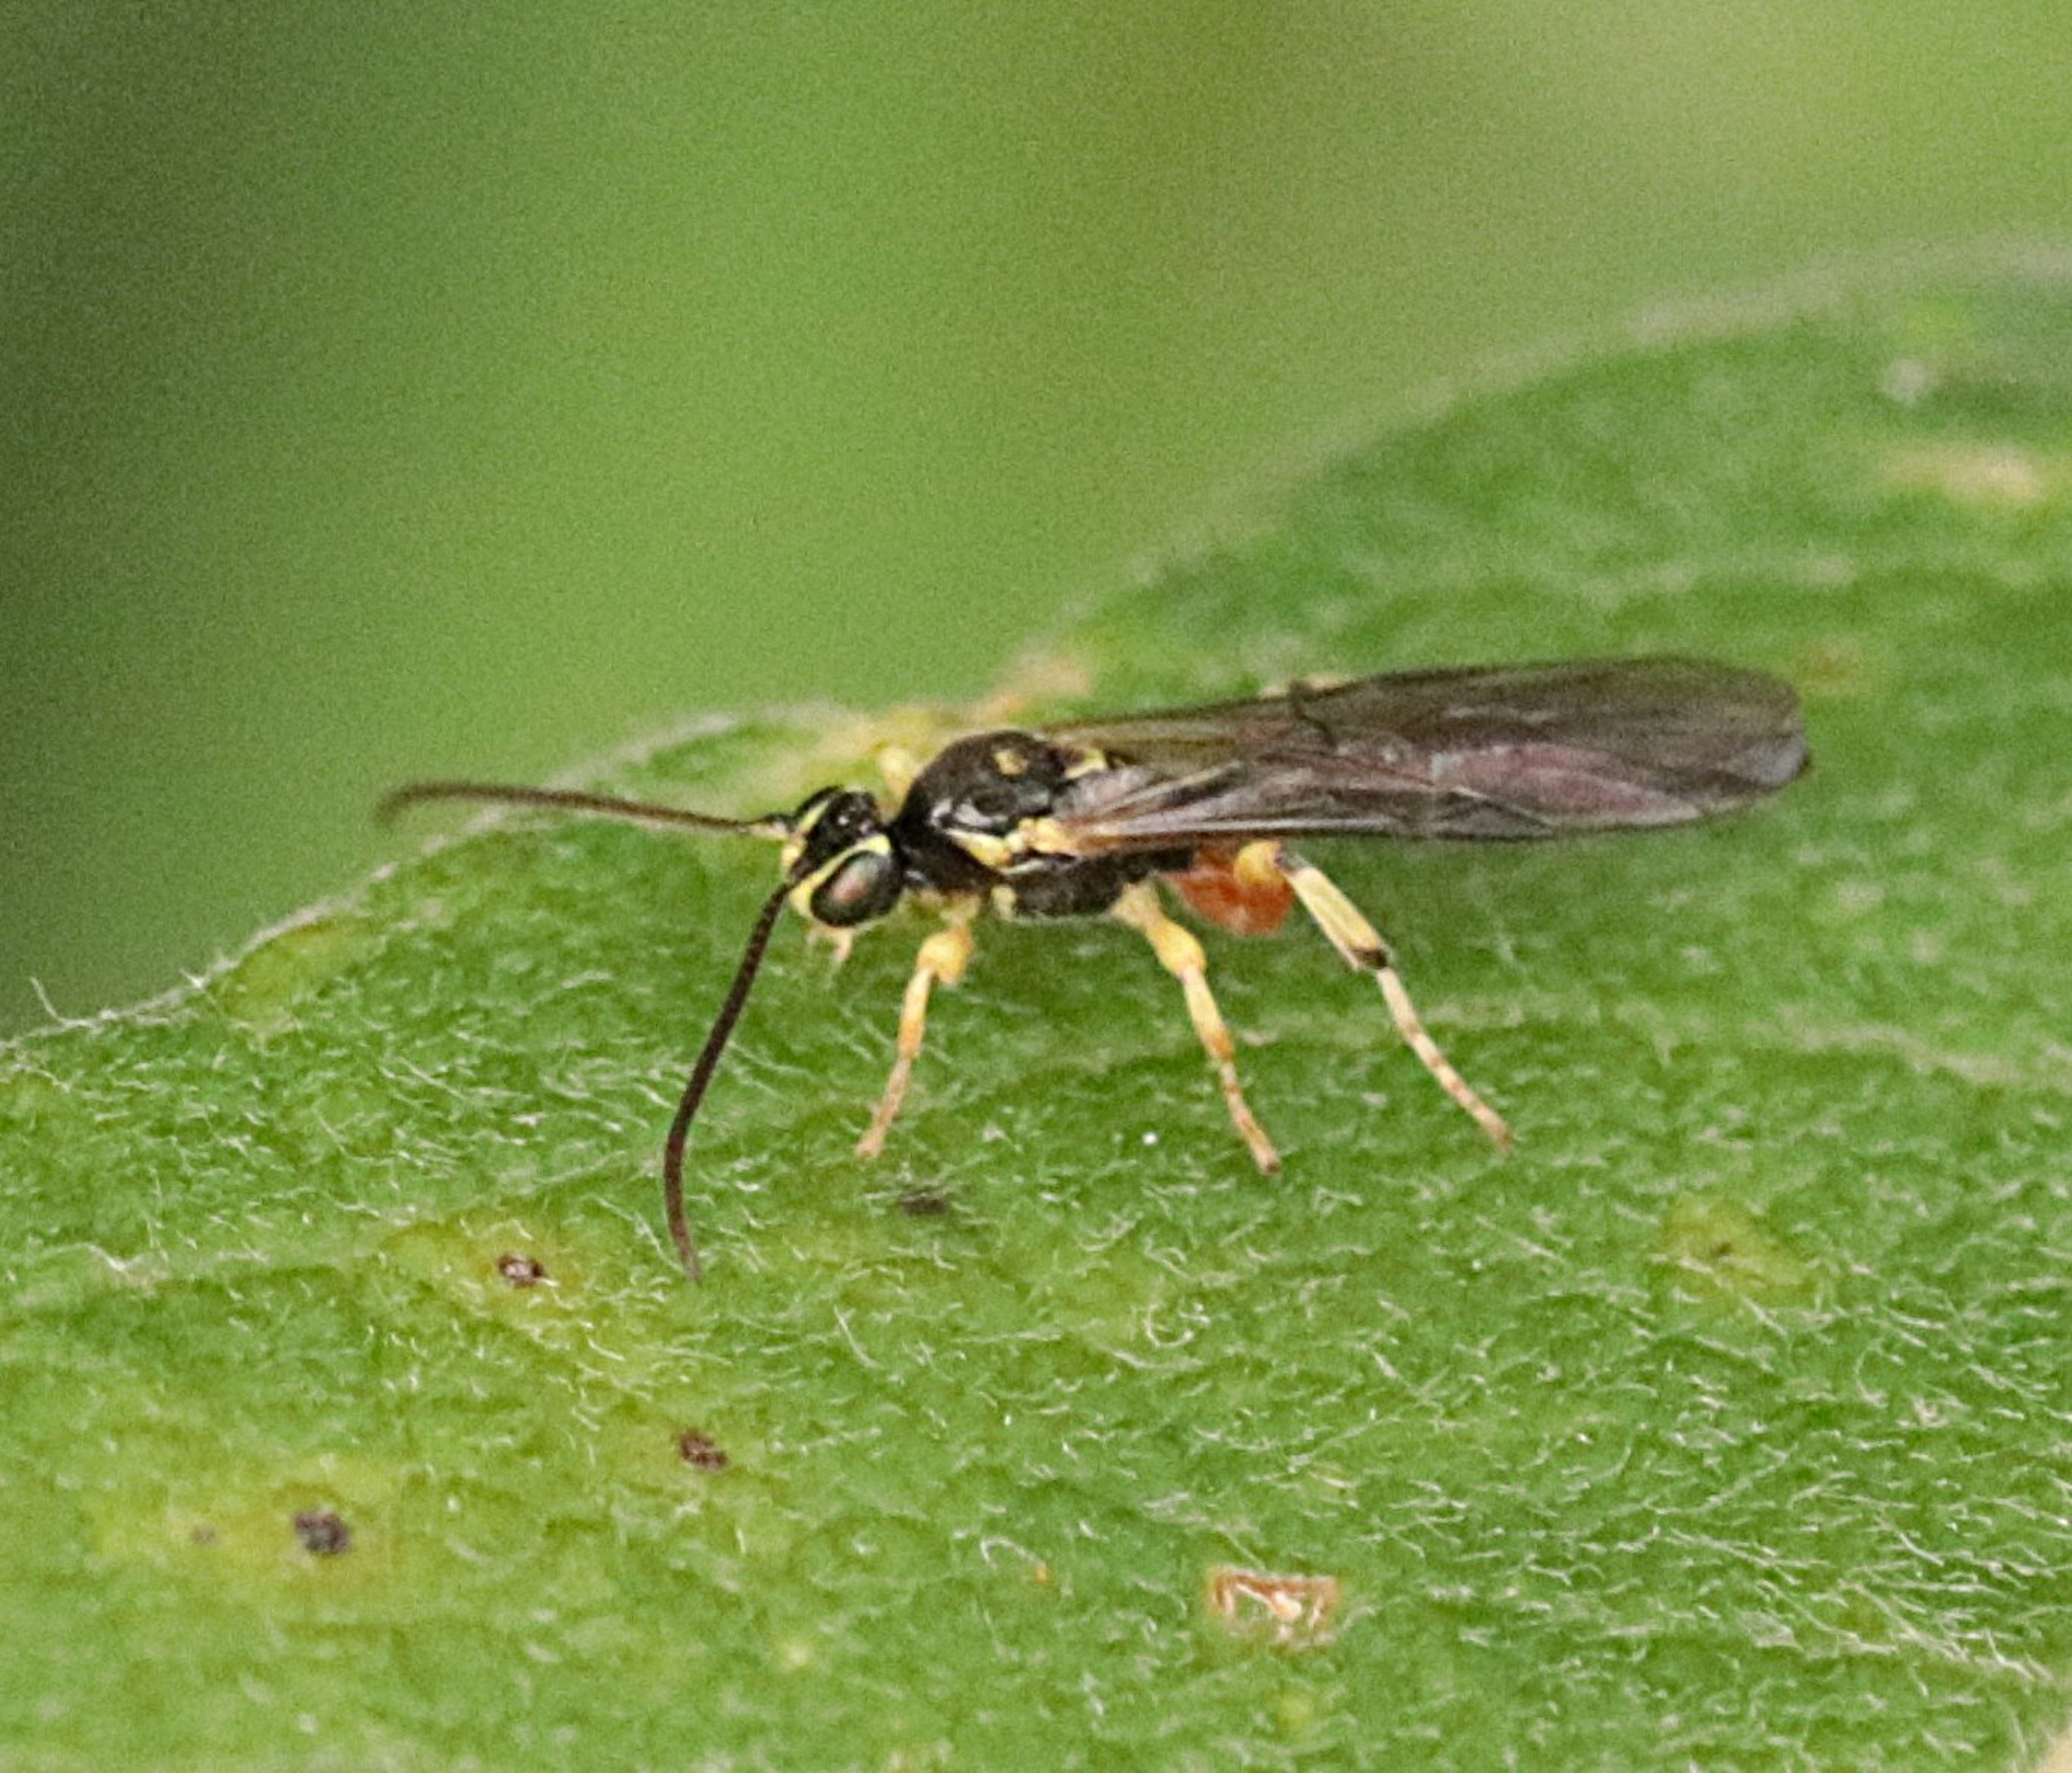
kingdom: Animalia
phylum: Arthropoda
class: Insecta
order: Hymenoptera
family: Ichneumonidae
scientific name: Ichneumonidae
